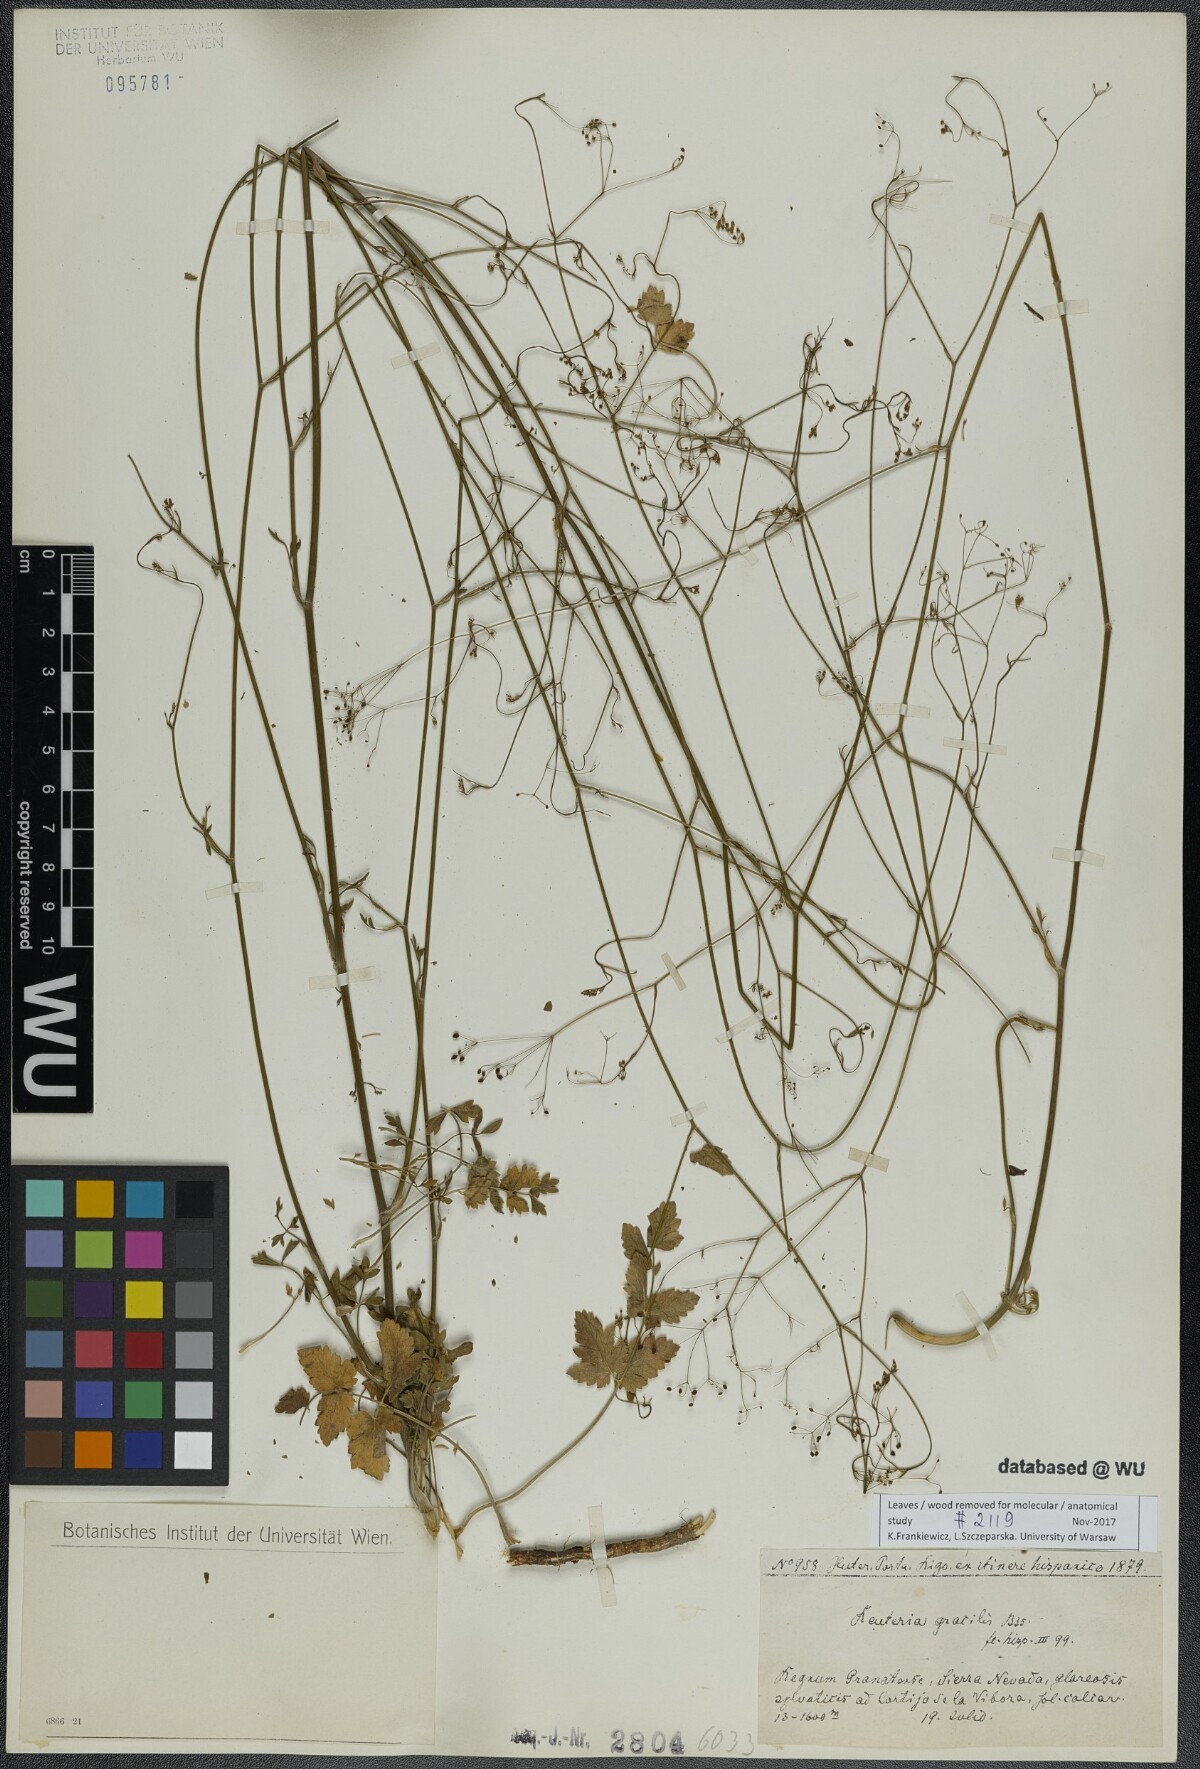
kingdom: Plantae
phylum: Tracheophyta
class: Magnoliopsida
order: Apiales
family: Apiaceae
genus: Pimpinella
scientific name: Pimpinella propinqua
